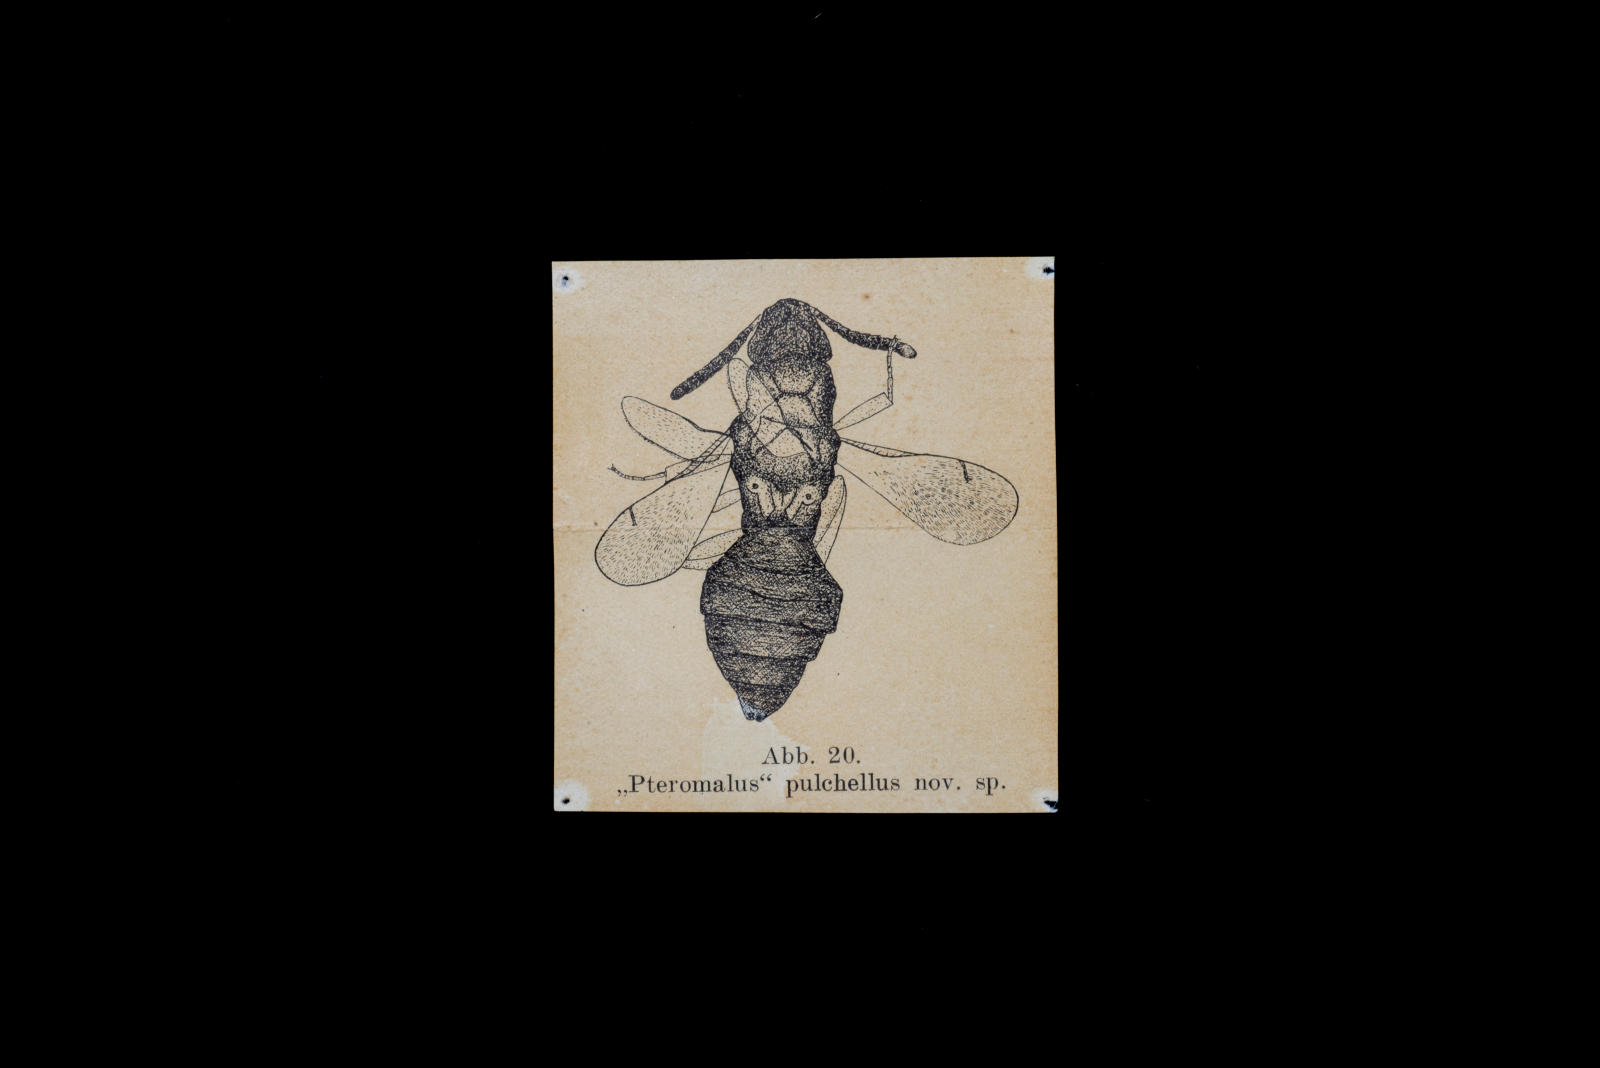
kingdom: Animalia
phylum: Arthropoda
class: Insecta
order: Hymenoptera
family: Pteromalidae
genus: Pteromalus
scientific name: Pteromalus pulchellus
